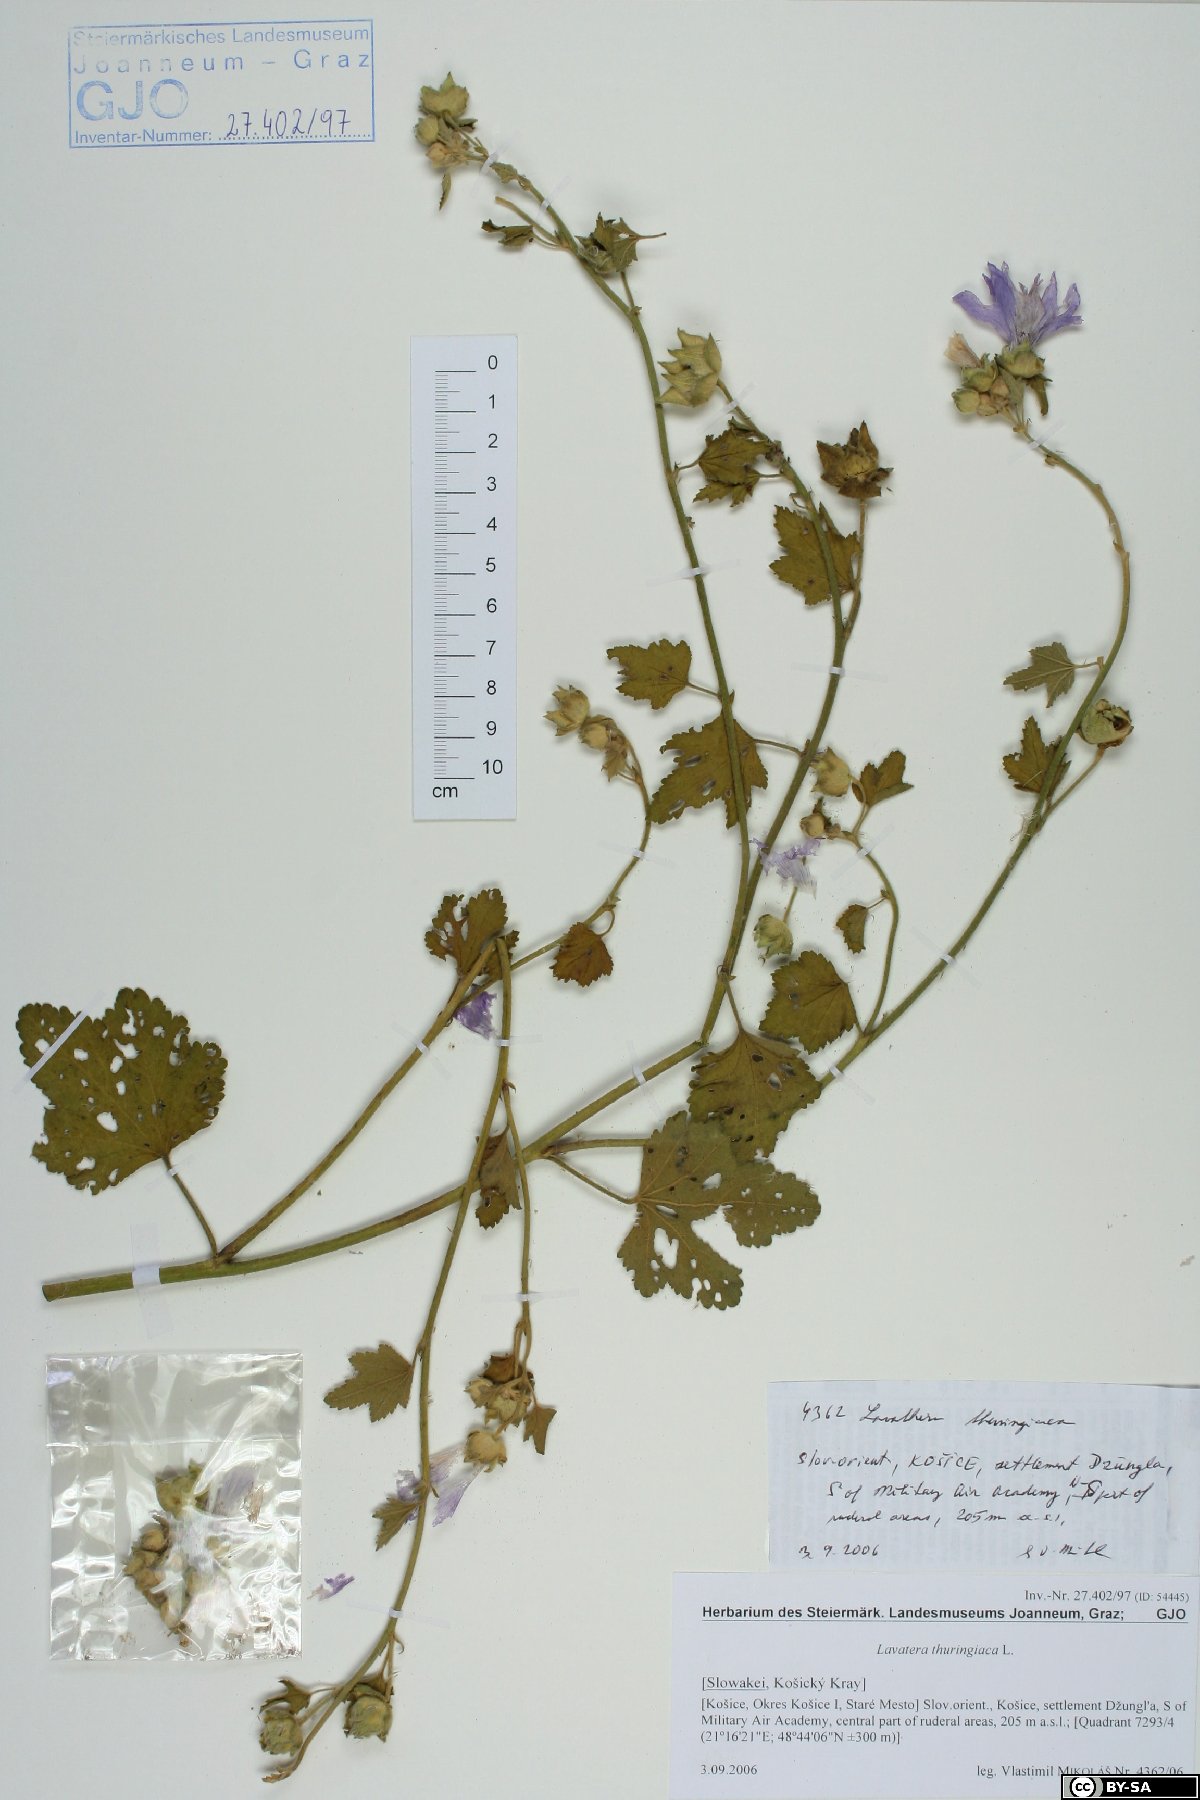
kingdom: Plantae
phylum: Tracheophyta
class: Magnoliopsida
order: Malvales
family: Malvaceae
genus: Malva
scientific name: Malva thuringiaca
